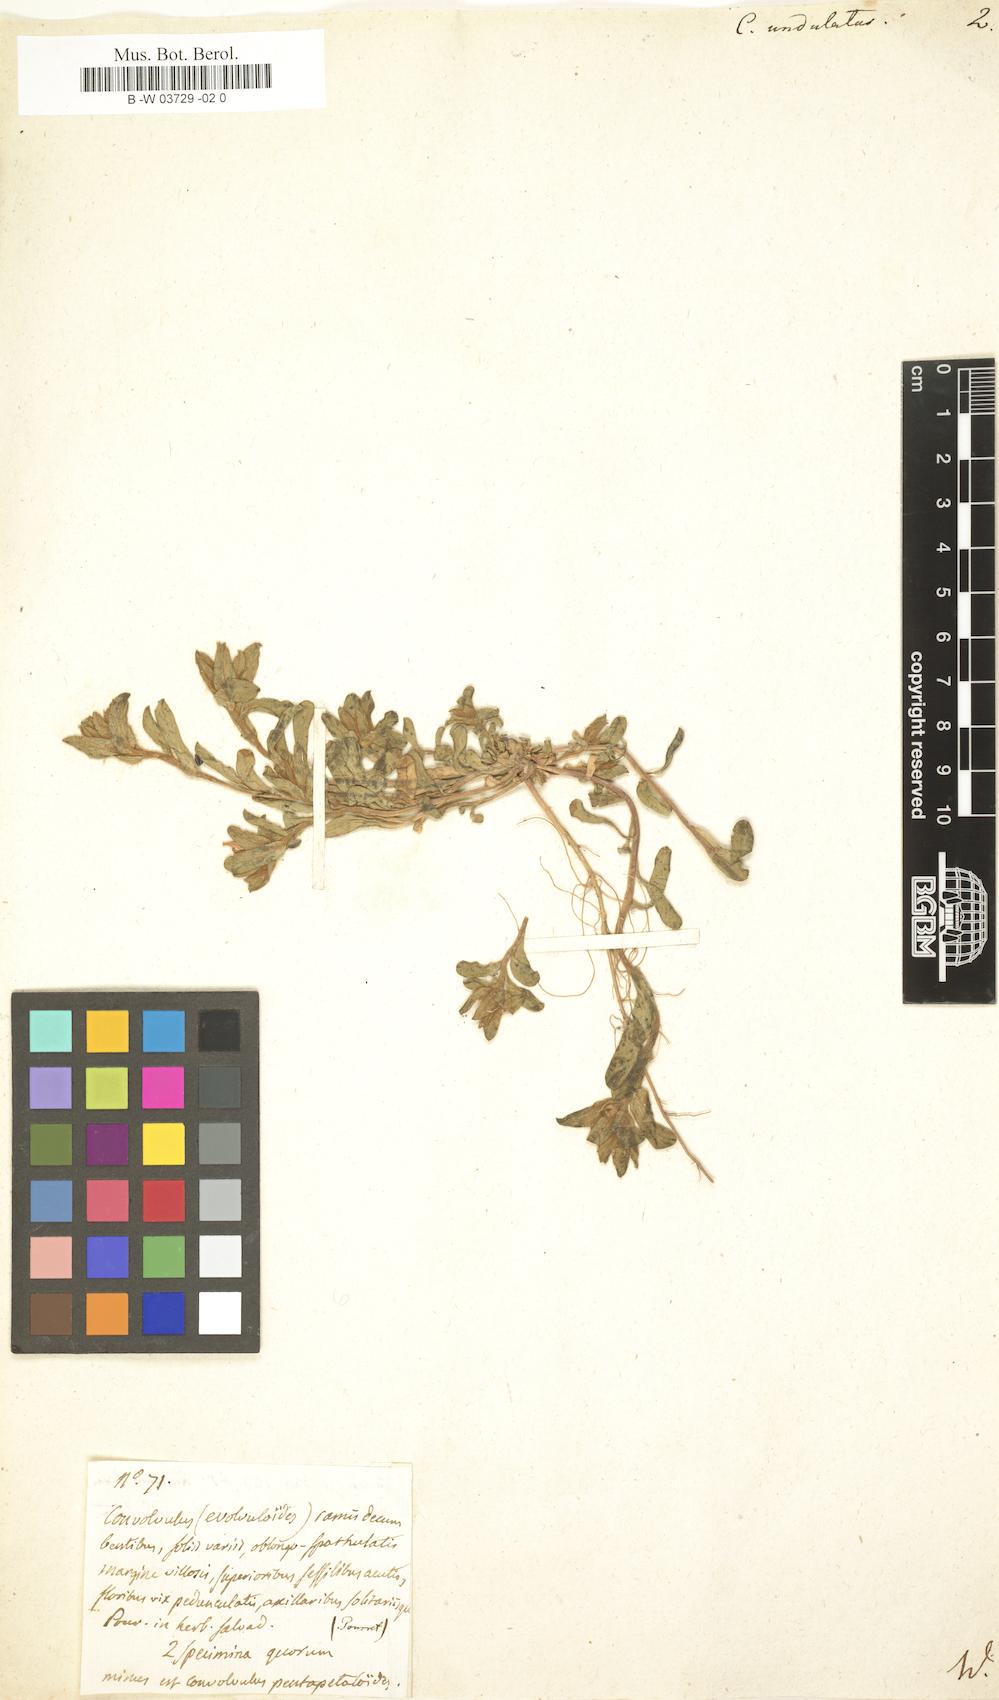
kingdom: Plantae
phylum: Tracheophyta
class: Magnoliopsida
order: Solanales
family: Convolvulaceae
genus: Convolvulus
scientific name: Convolvulus humilis
